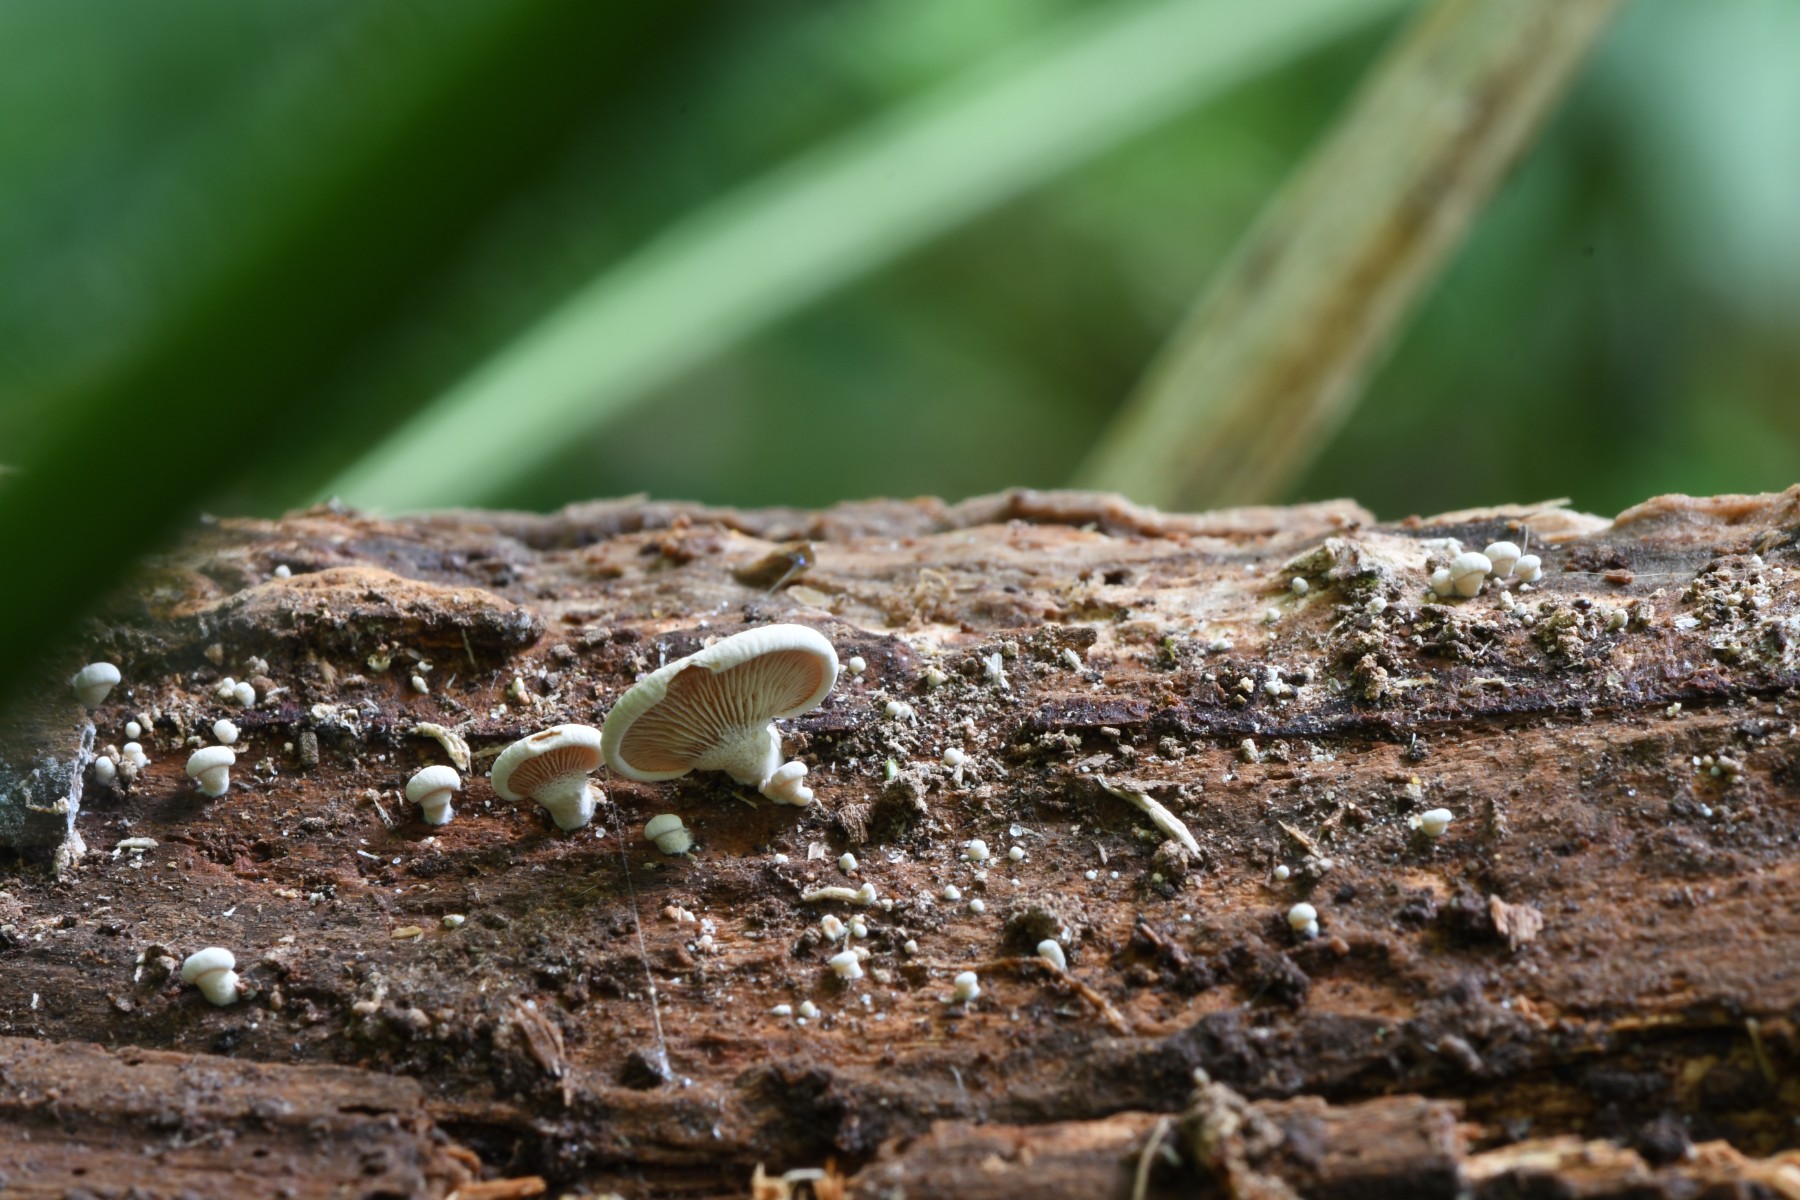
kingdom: Fungi
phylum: Basidiomycota
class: Agaricomycetes
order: Agaricales
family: Mycenaceae
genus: Panellus
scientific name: Panellus stipticus
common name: kliddet epaulethat
